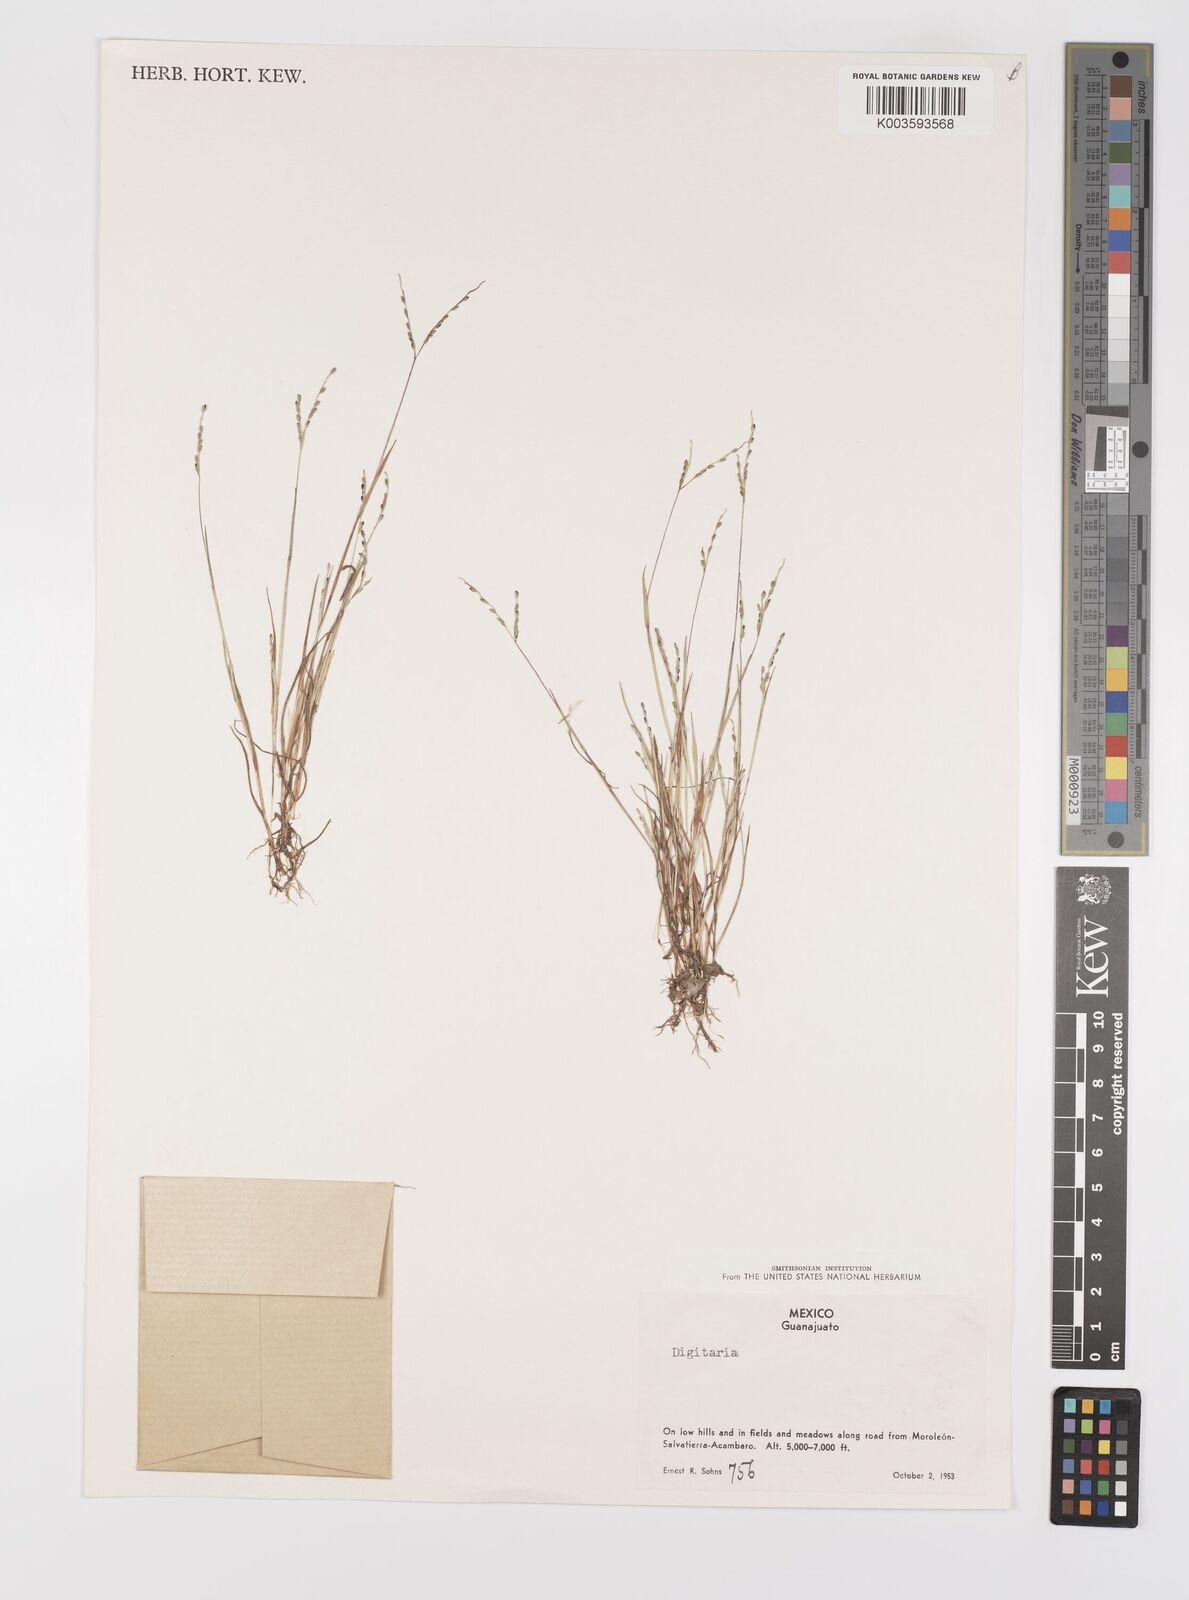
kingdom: Plantae
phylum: Tracheophyta
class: Liliopsida
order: Poales
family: Poaceae
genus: Digitaria
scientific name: Digitaria spec
